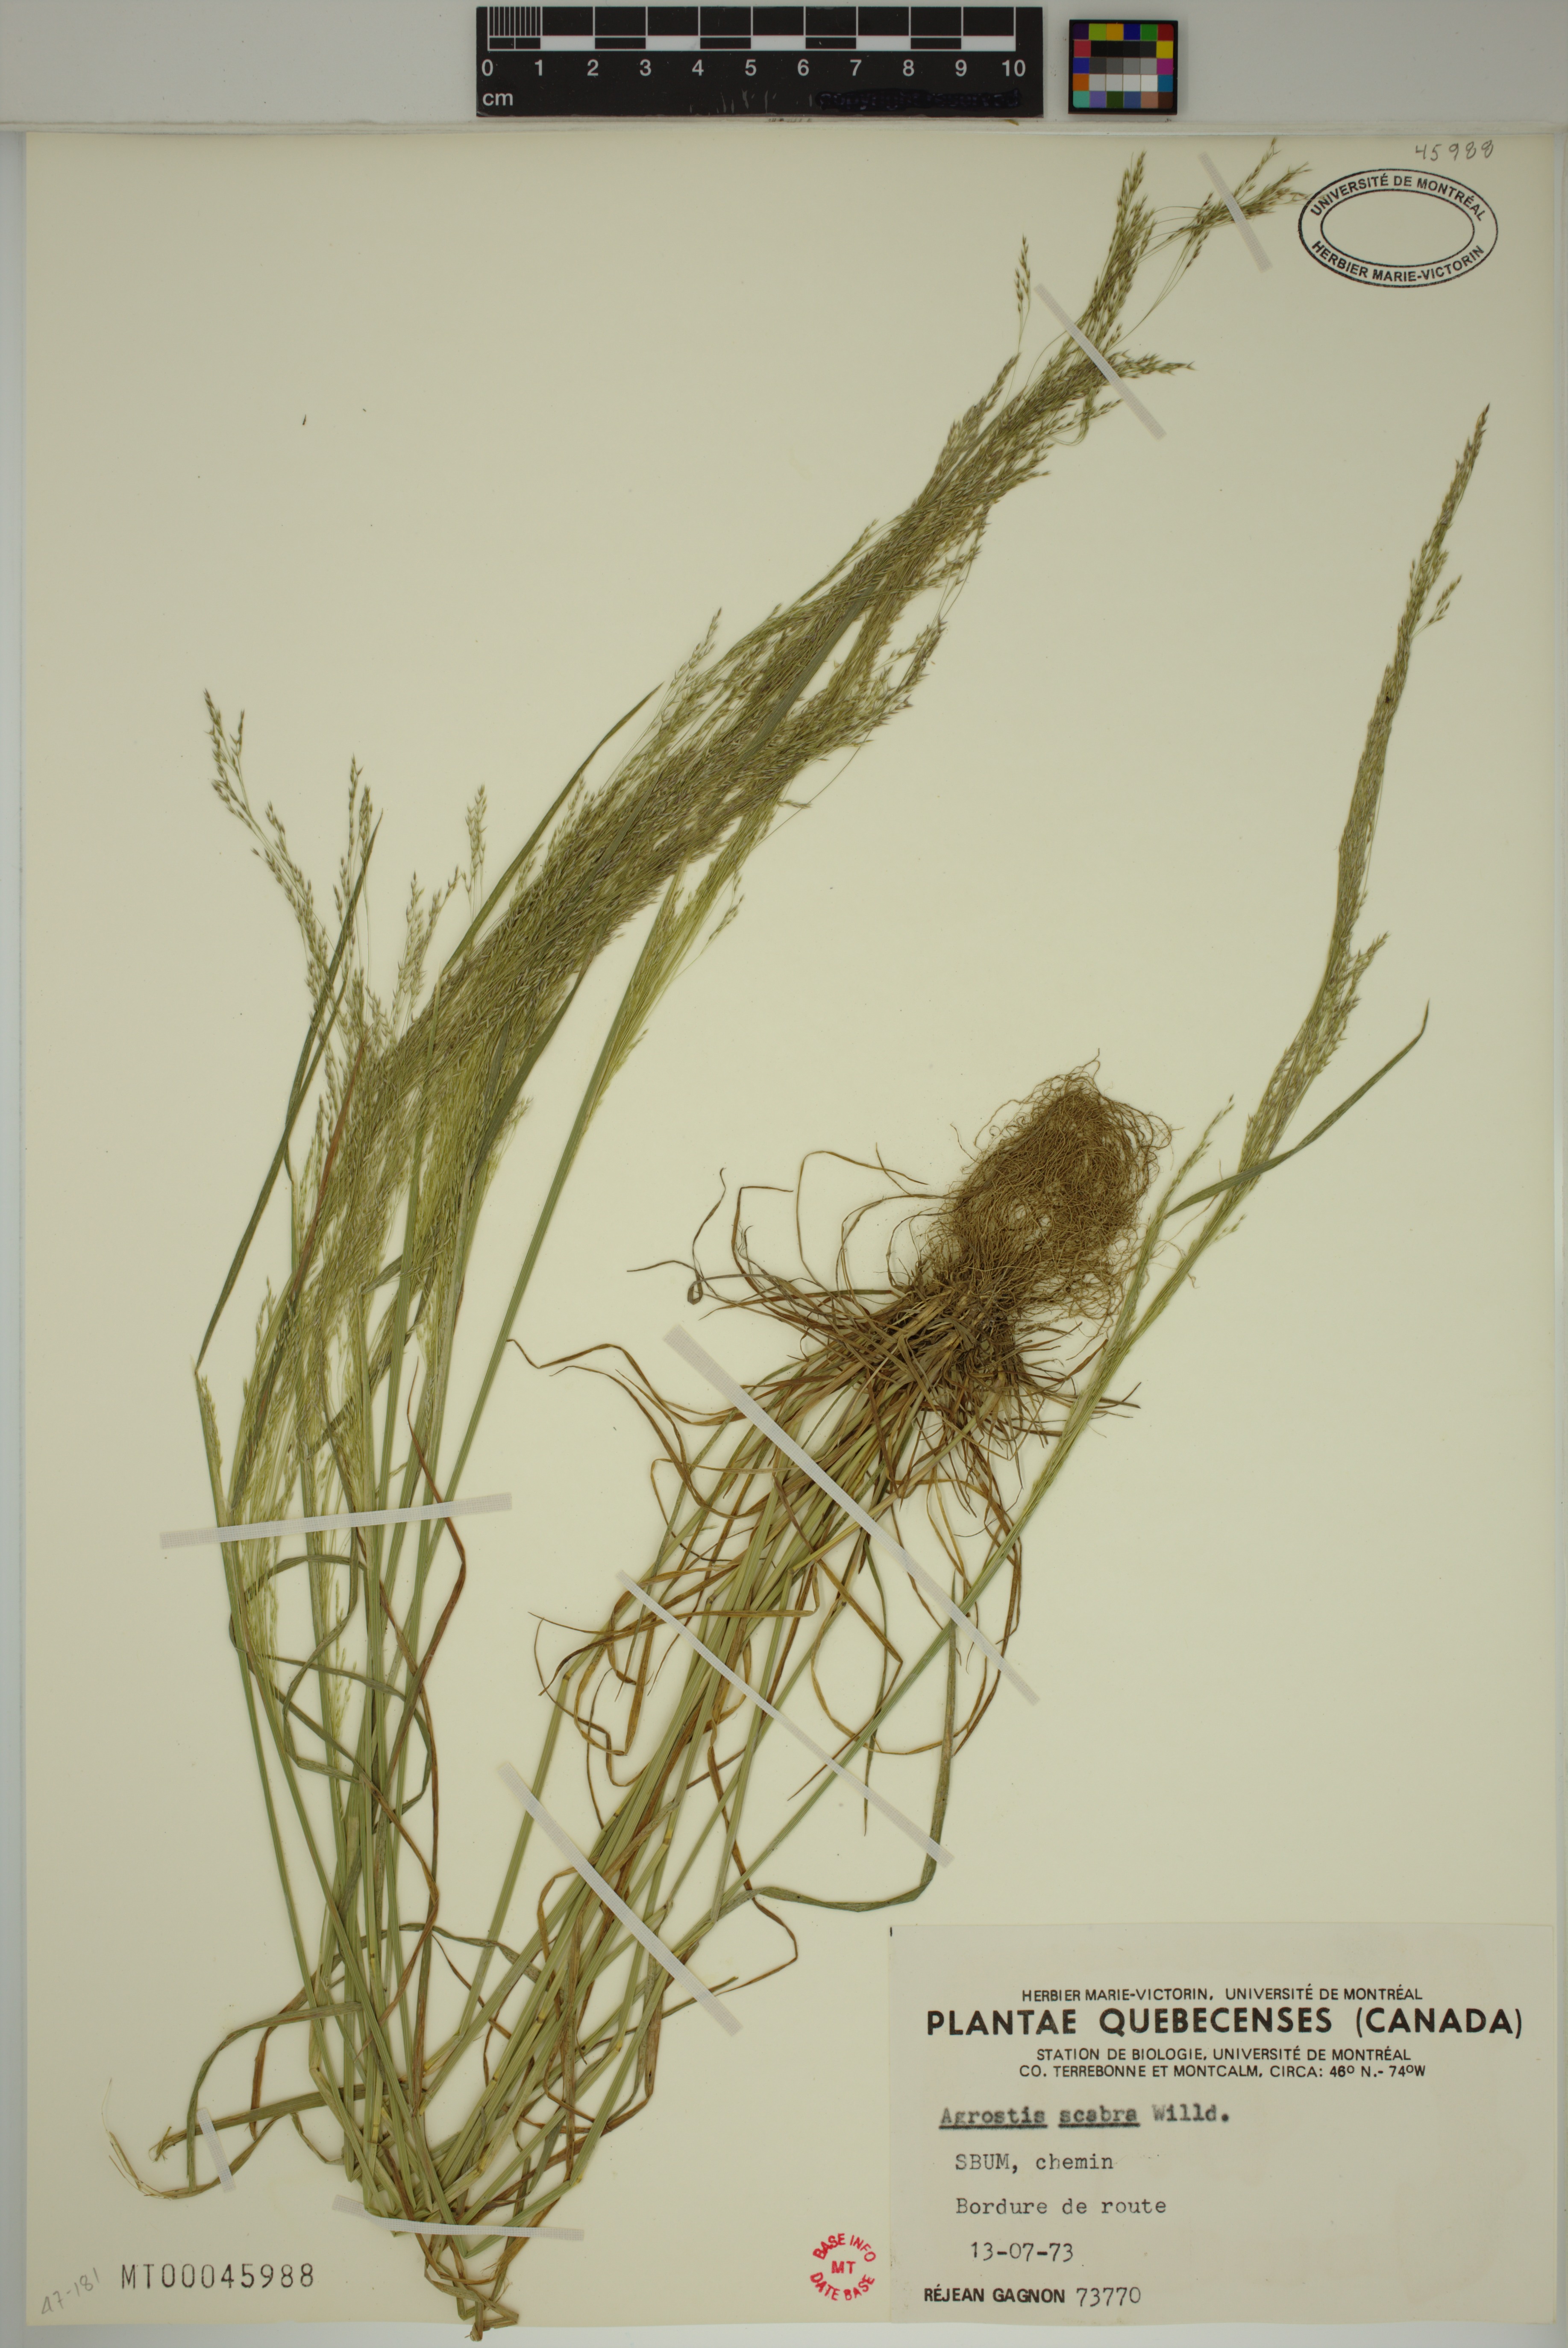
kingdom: Plantae
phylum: Tracheophyta
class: Liliopsida
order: Poales
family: Poaceae
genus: Agrostis
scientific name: Agrostis scabra
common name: Rough bent
